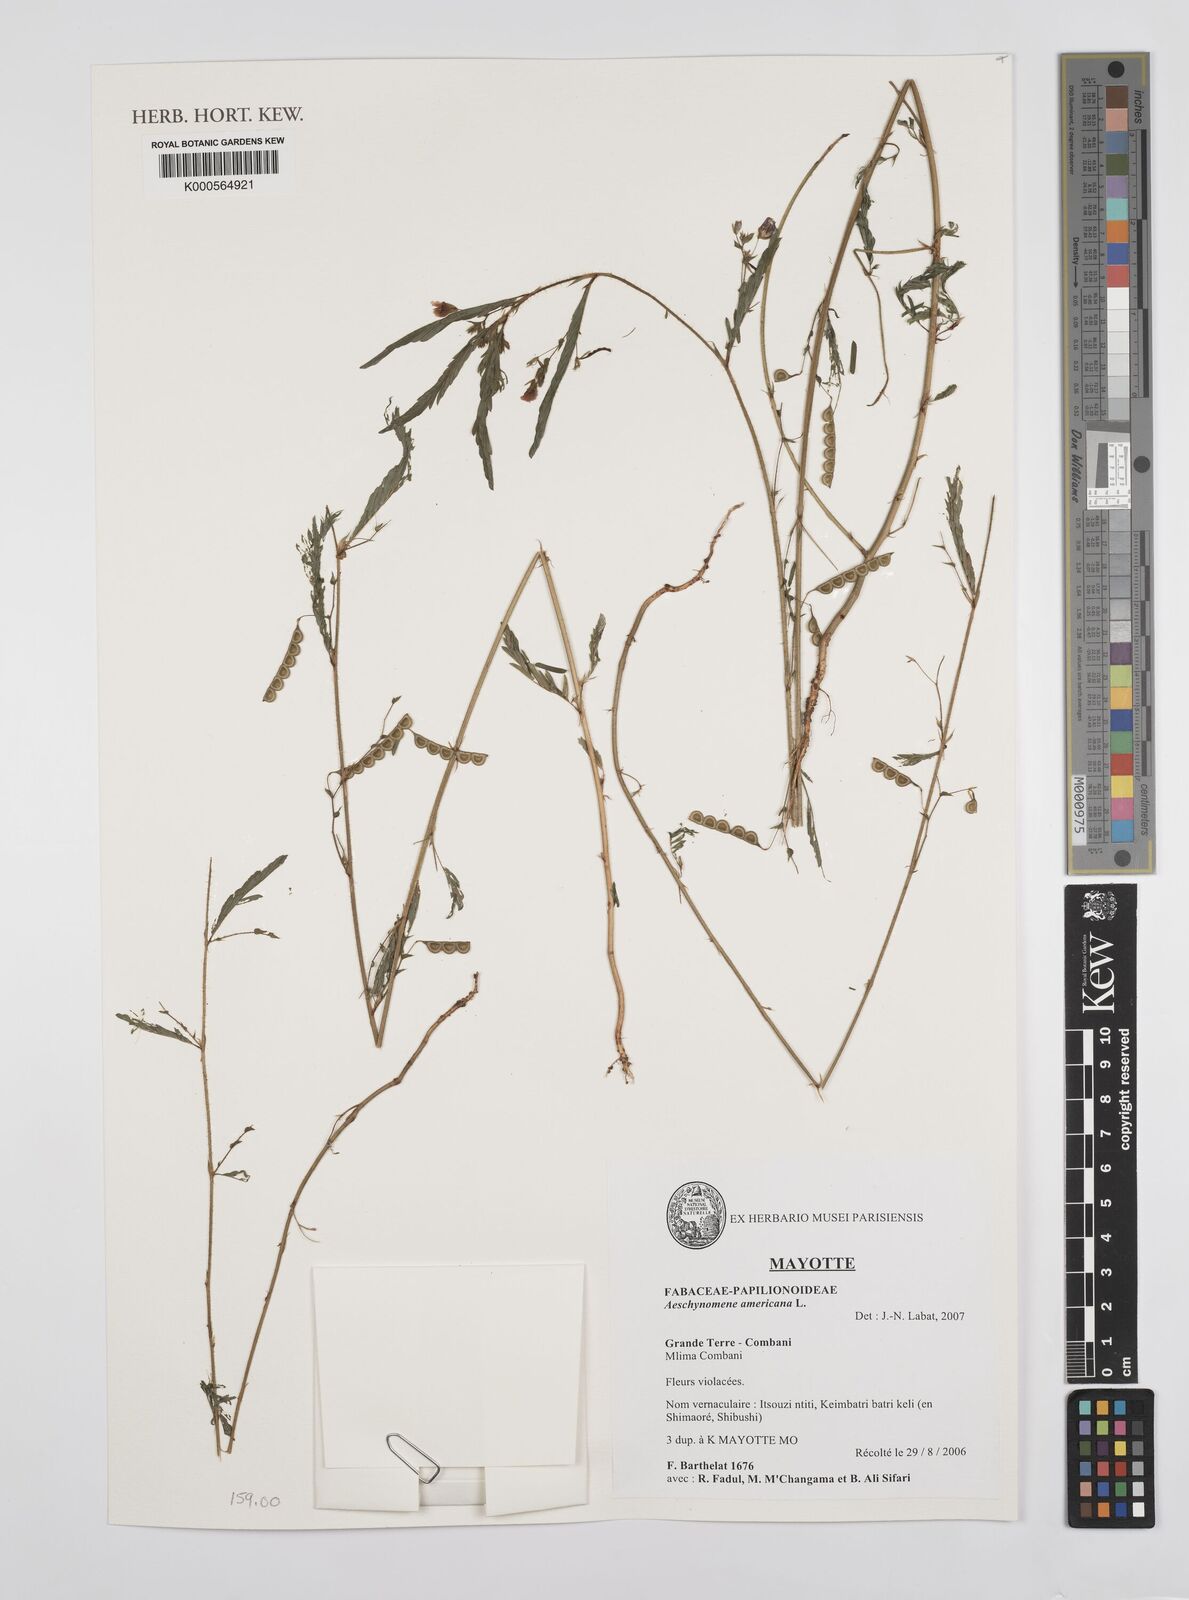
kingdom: Plantae
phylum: Tracheophyta
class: Magnoliopsida
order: Fabales
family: Fabaceae
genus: Aeschynomene
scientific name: Aeschynomene americana
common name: Joint-vetch
